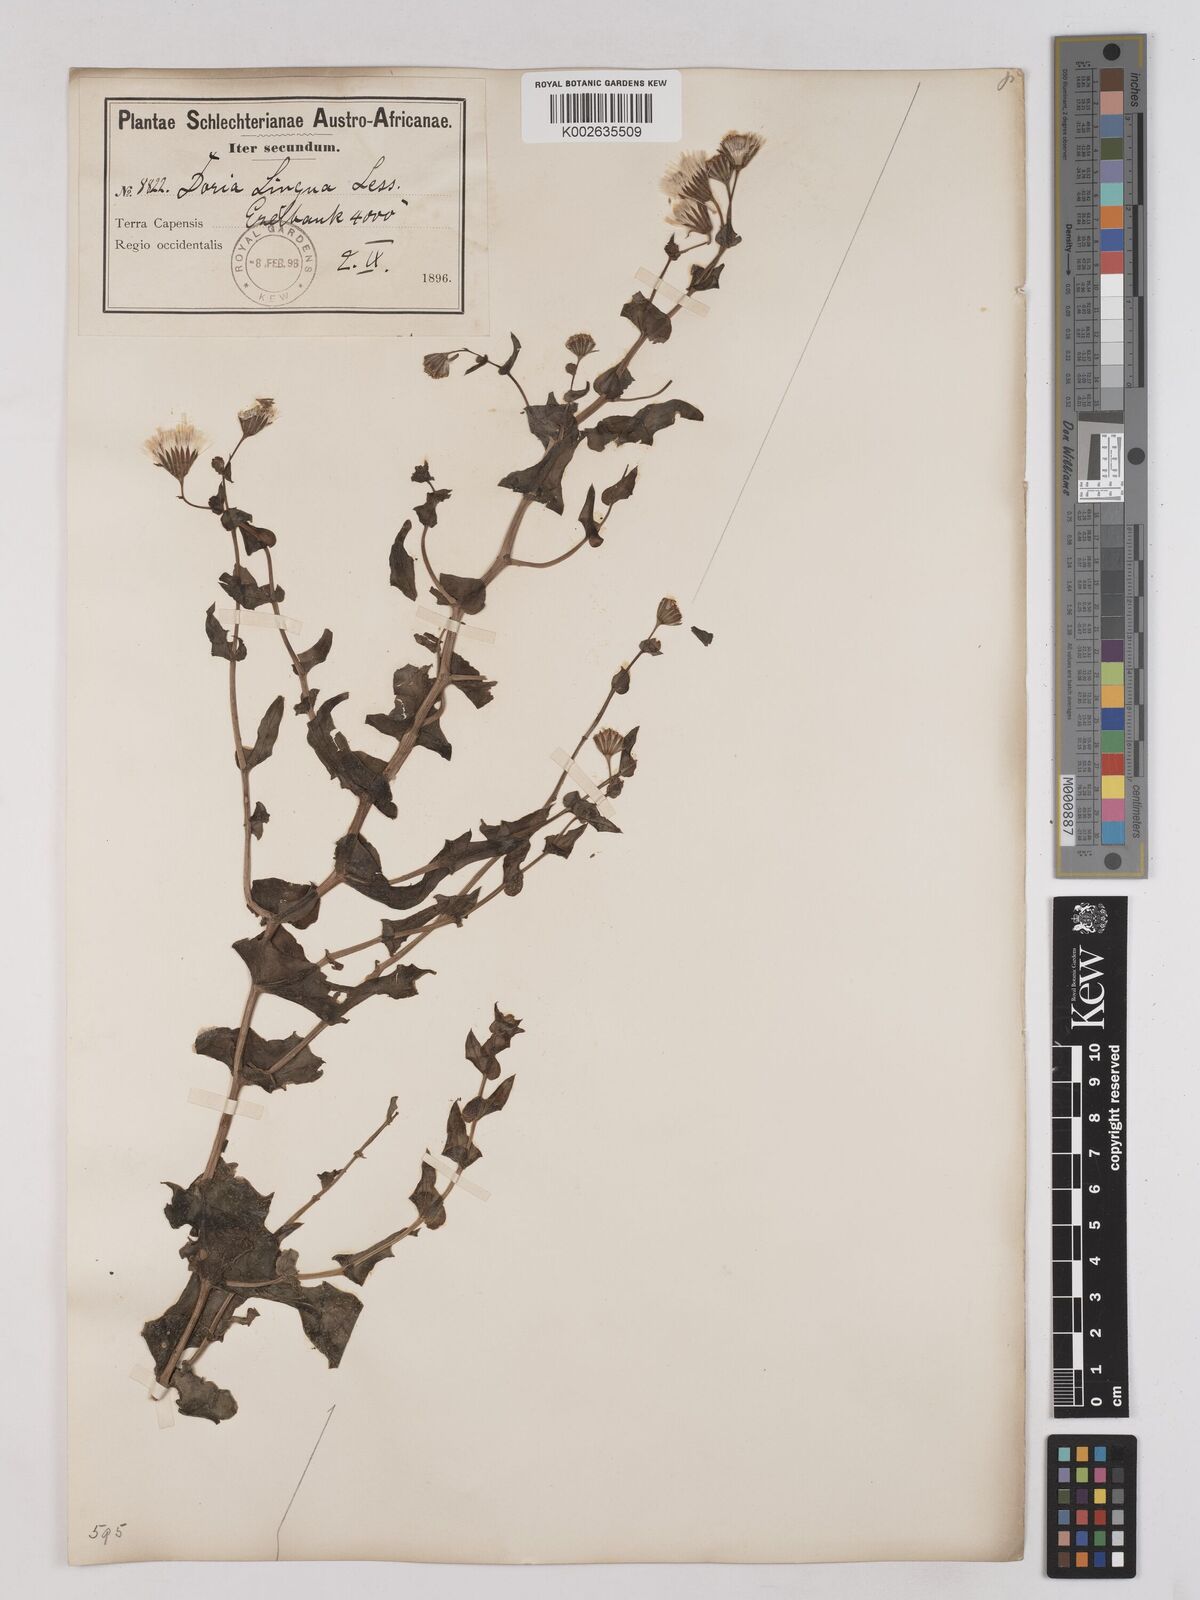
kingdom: Plantae
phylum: Tracheophyta
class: Magnoliopsida
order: Asterales
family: Asteraceae
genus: Othonna
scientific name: Othonna perfoliata
